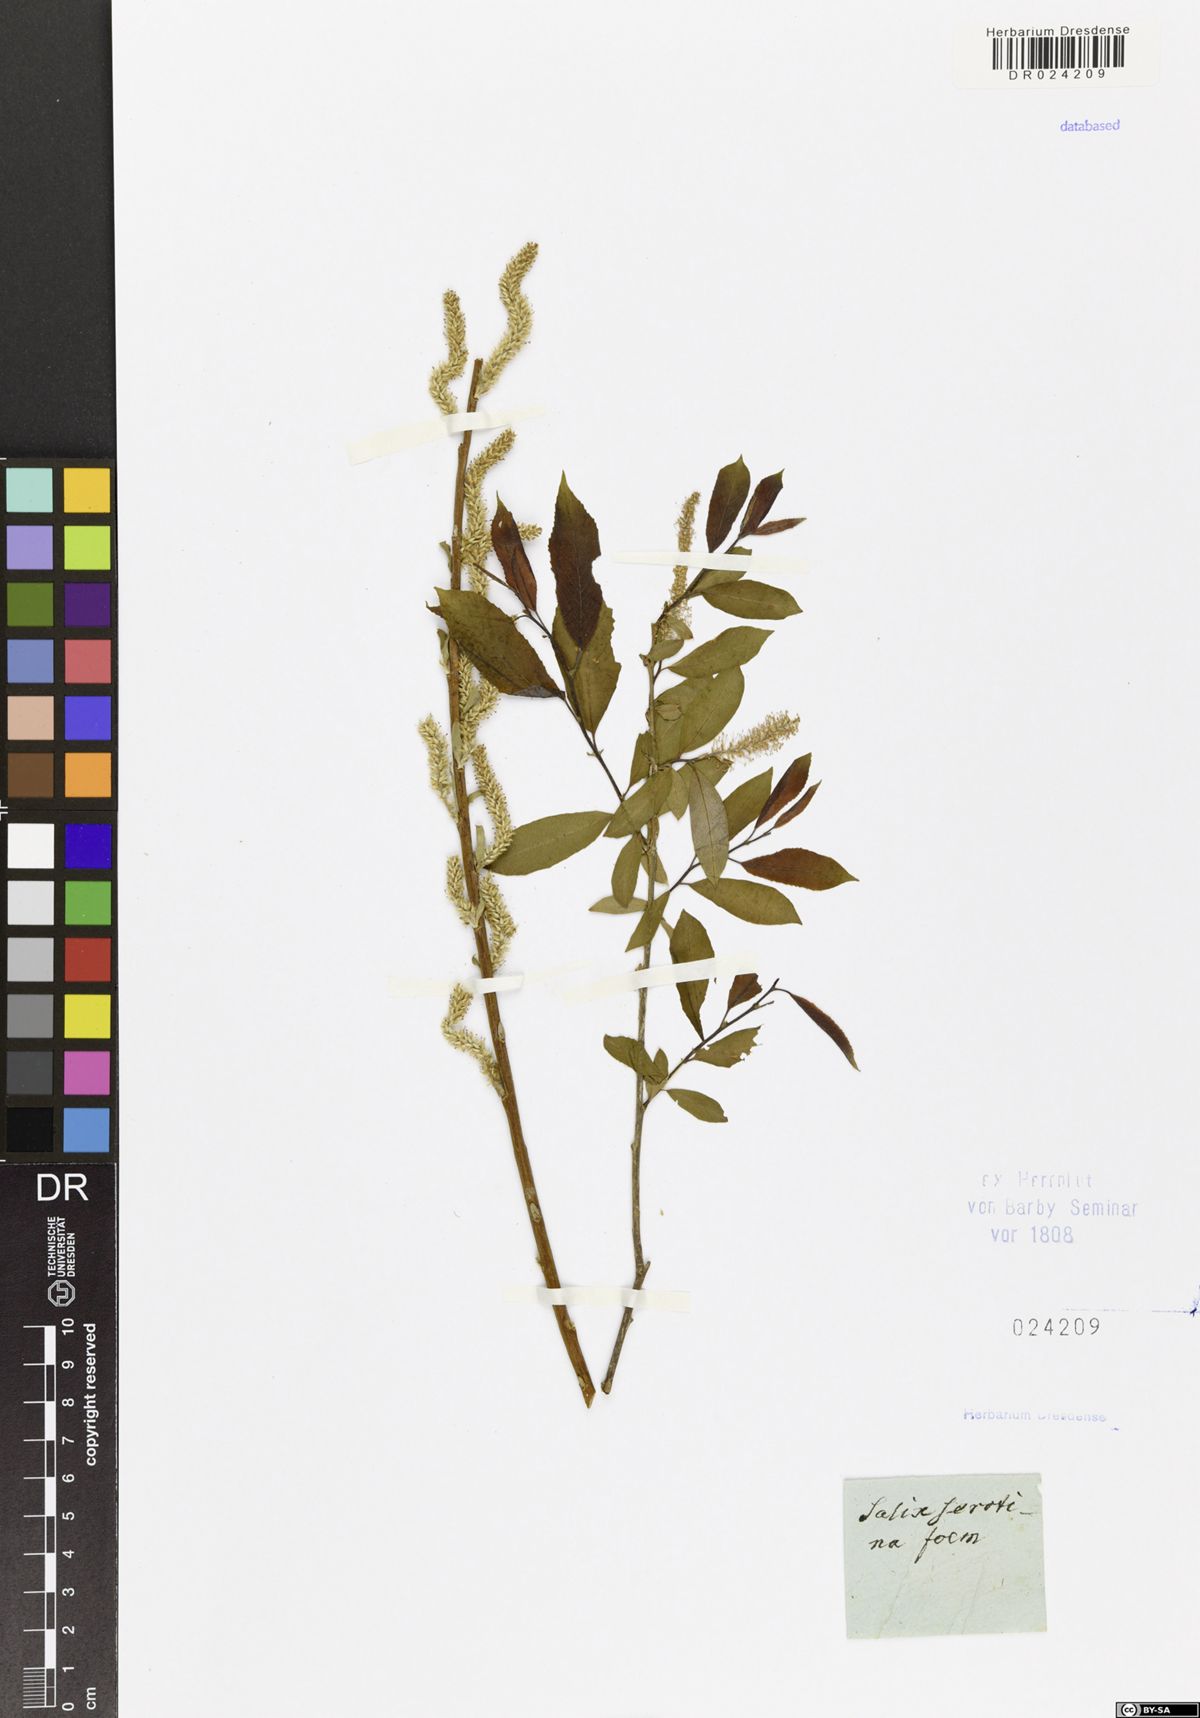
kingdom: Plantae
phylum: Tracheophyta
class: Magnoliopsida
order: Malpighiales
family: Salicaceae
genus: Salix
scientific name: Salix triandra
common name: Almond willow
